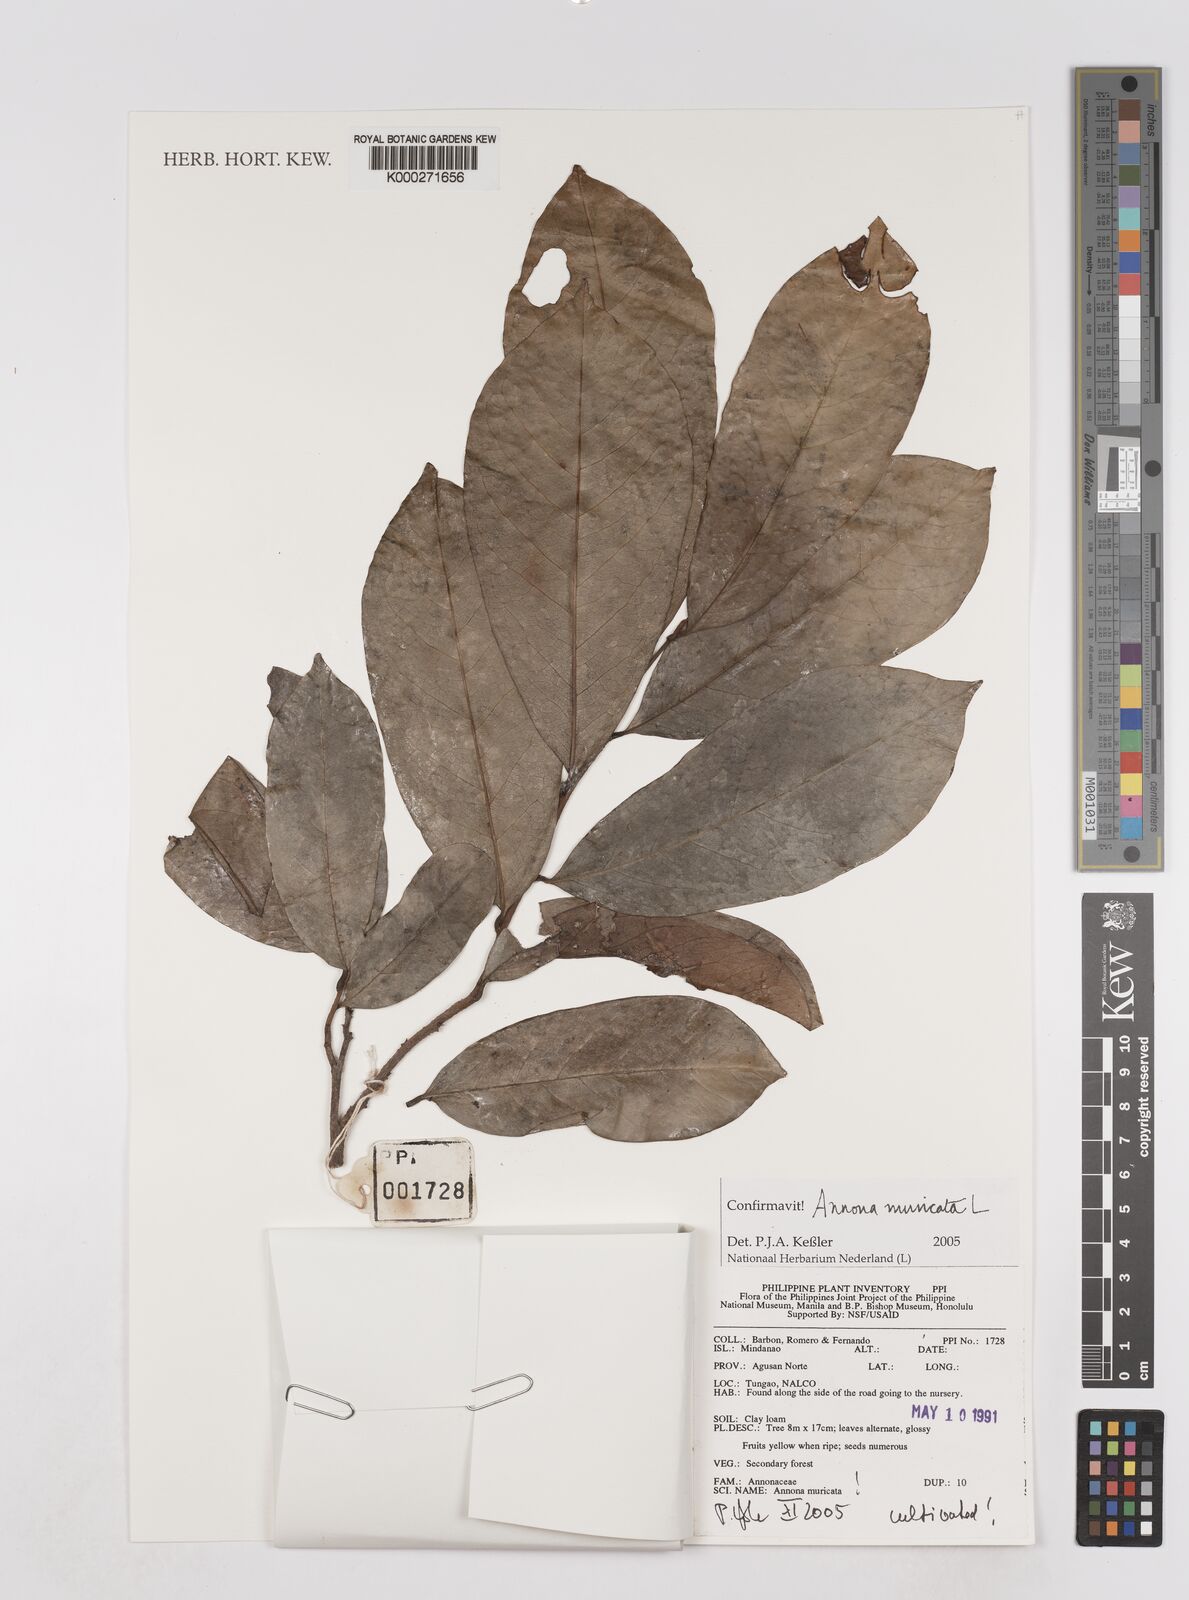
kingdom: Plantae
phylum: Tracheophyta
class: Magnoliopsida
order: Magnoliales
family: Annonaceae
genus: Annona
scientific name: Annona muricata
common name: Soursop
